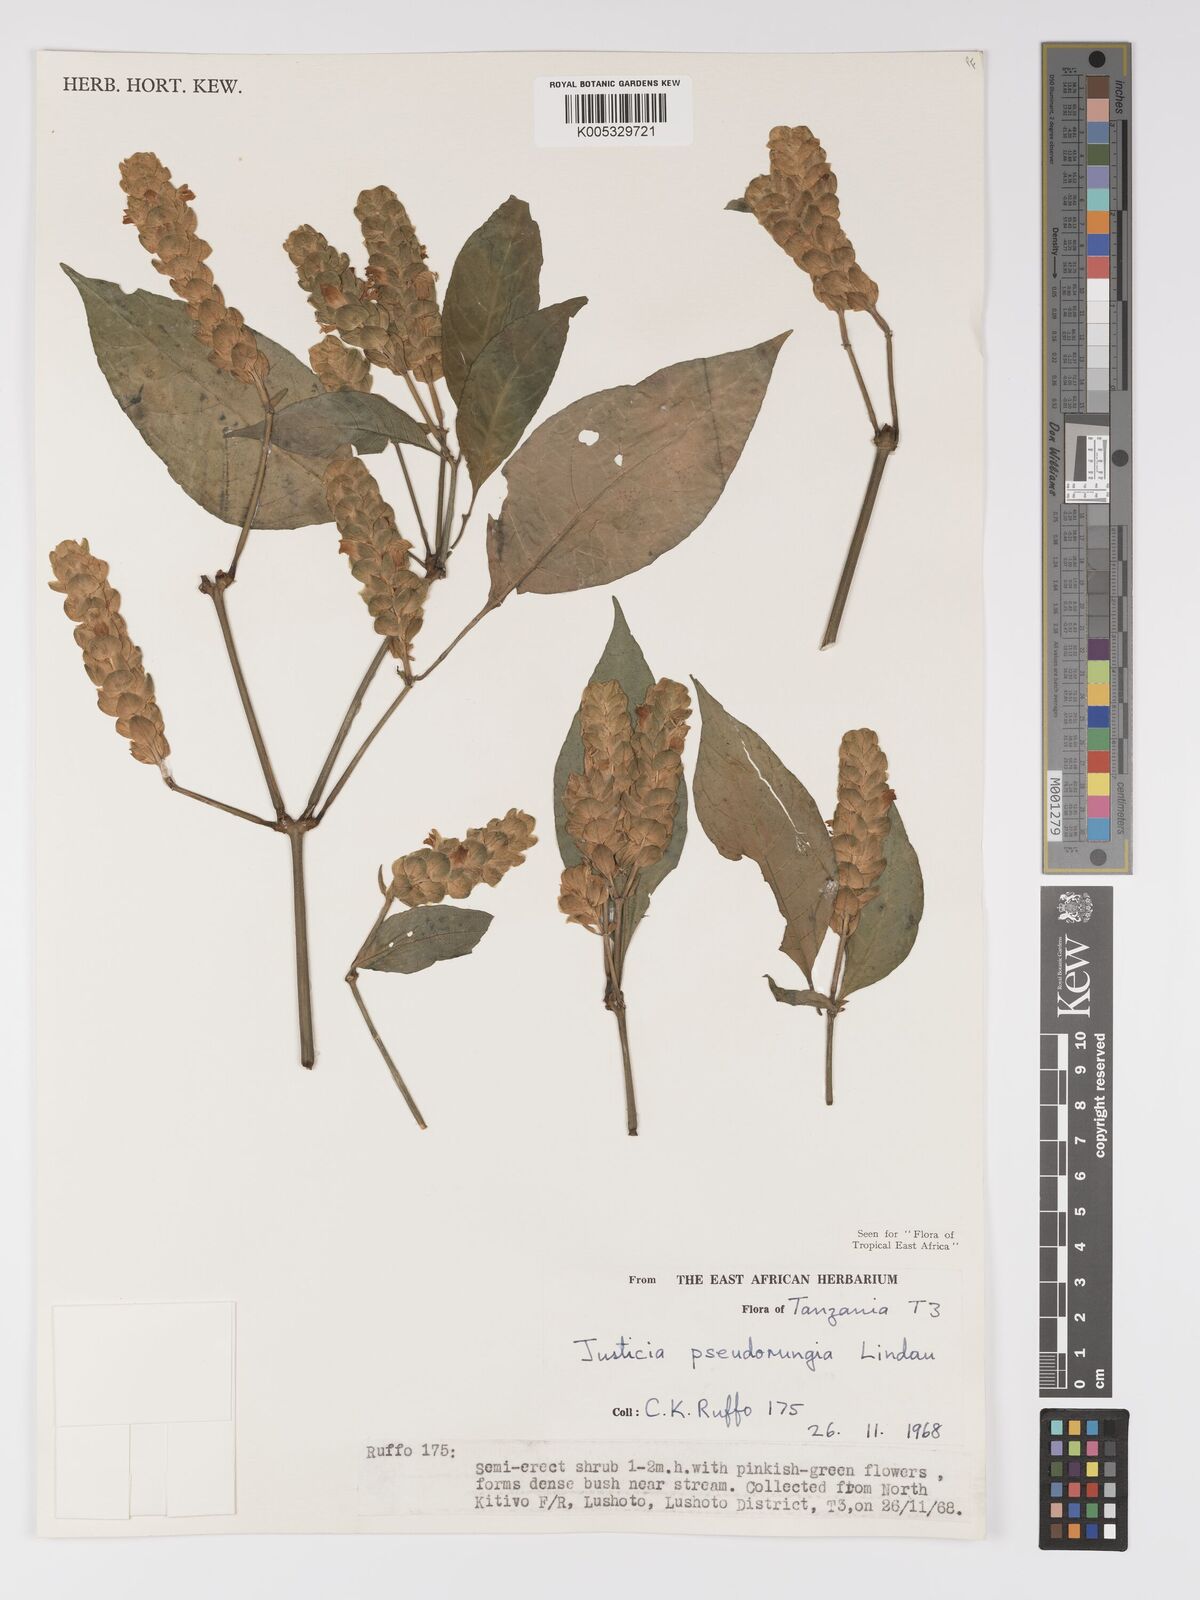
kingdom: Plantae
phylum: Tracheophyta
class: Magnoliopsida
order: Lamiales
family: Acanthaceae
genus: Justicia
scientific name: Justicia pseudorungia
